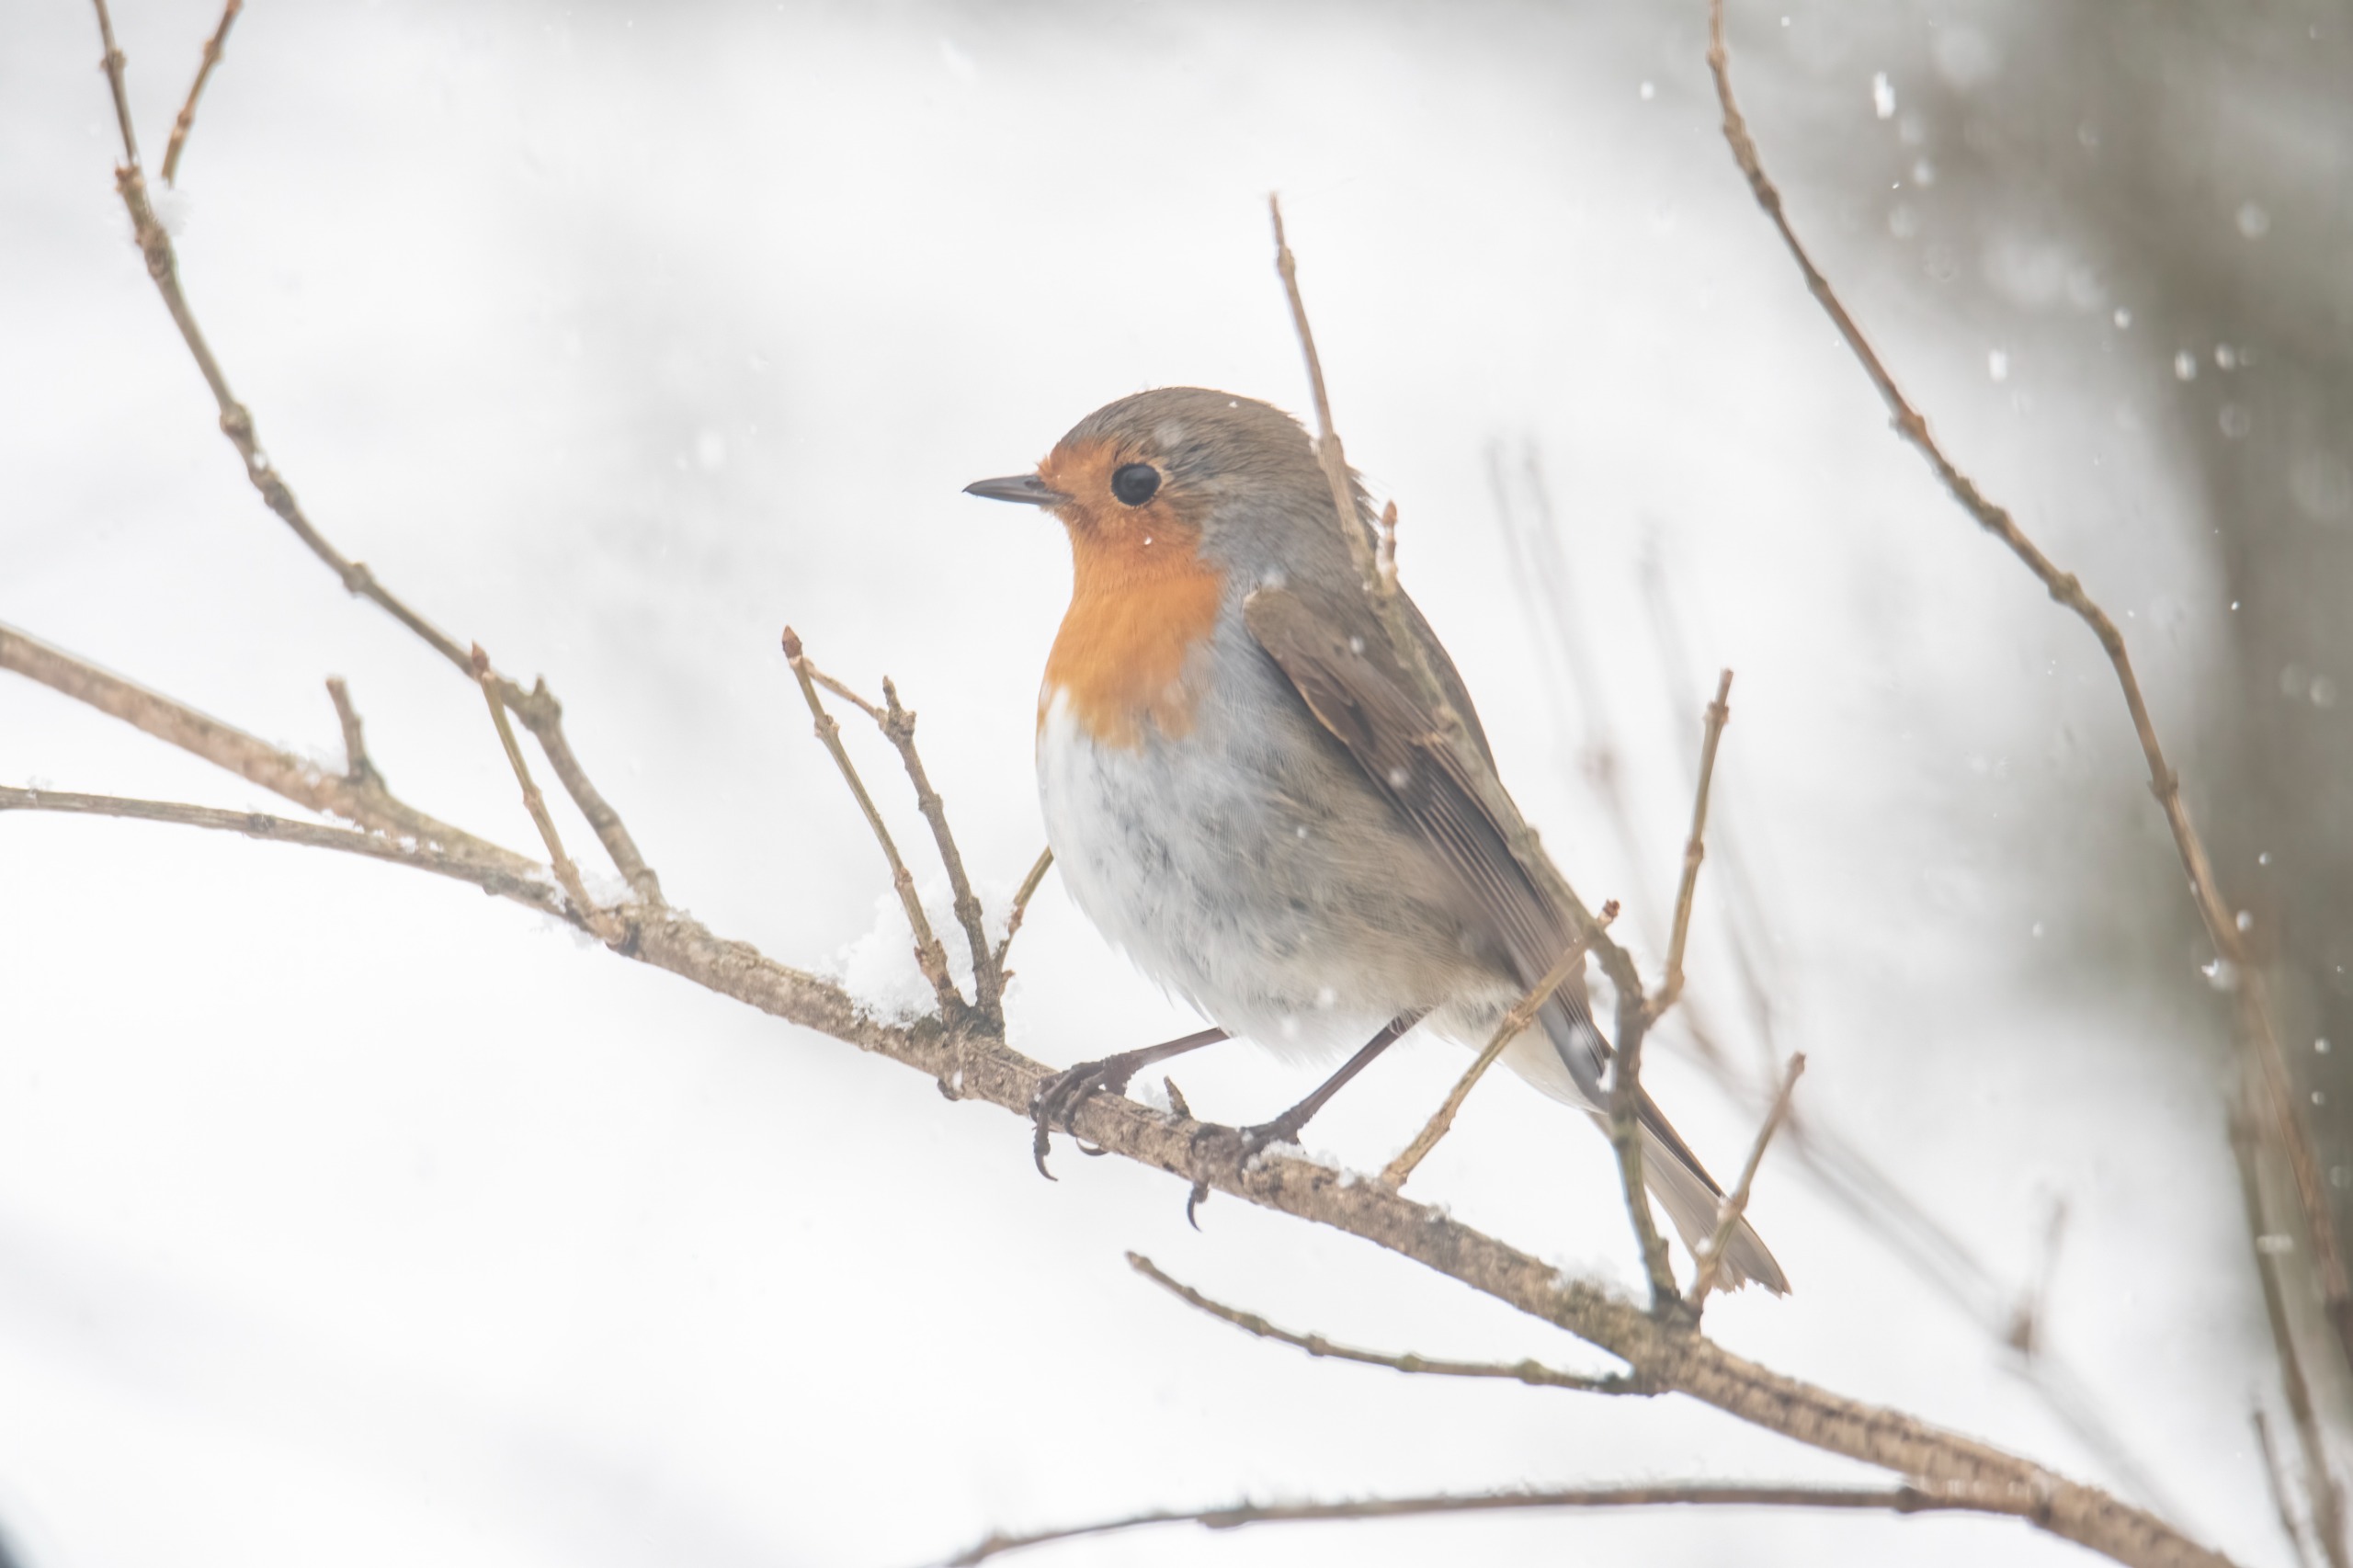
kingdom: Animalia
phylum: Chordata
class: Aves
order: Passeriformes
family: Muscicapidae
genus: Erithacus
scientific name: Erithacus rubecula
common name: Rødhals/rødkælk
